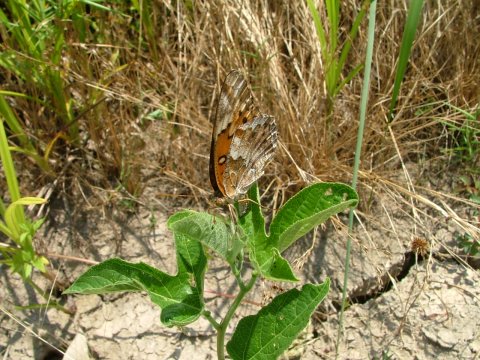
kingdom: Animalia
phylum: Arthropoda
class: Insecta
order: Lepidoptera
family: Nymphalidae
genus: Euptoieta
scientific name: Euptoieta claudia
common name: Variegated Fritillary
